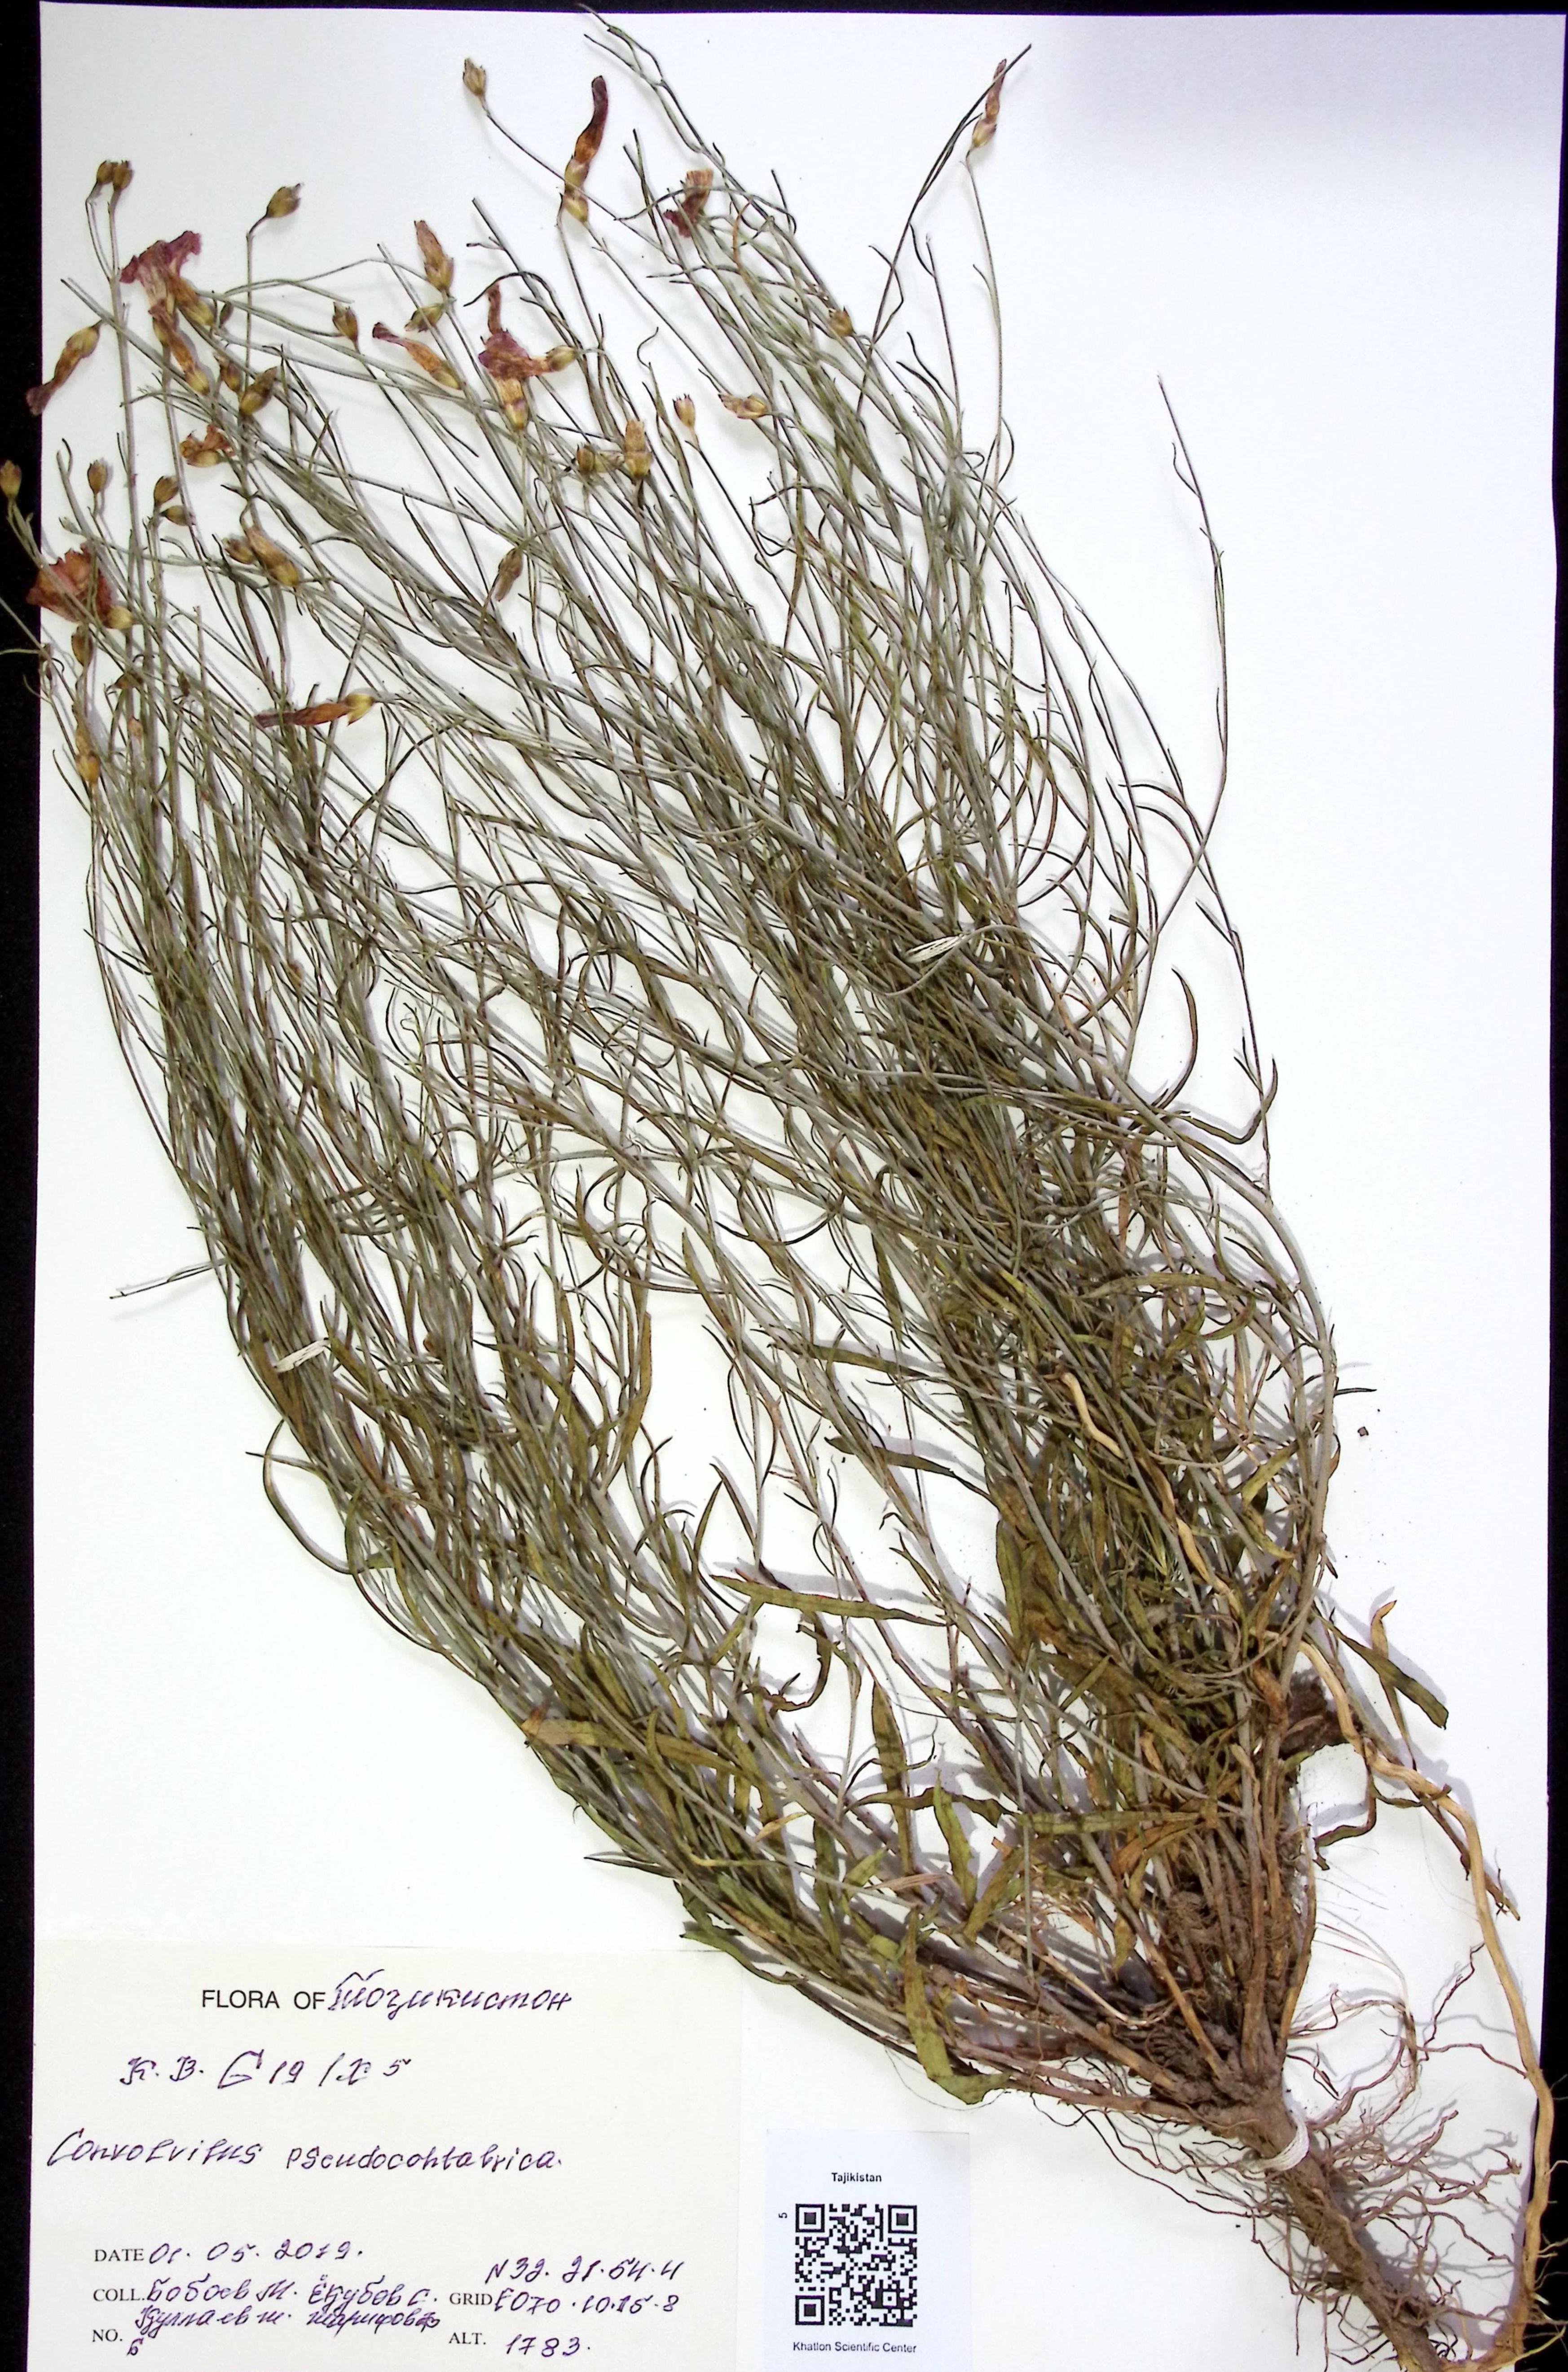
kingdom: Plantae
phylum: Tracheophyta
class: Magnoliopsida
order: Solanales
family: Convolvulaceae
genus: Convolvulus
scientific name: Convolvulus
